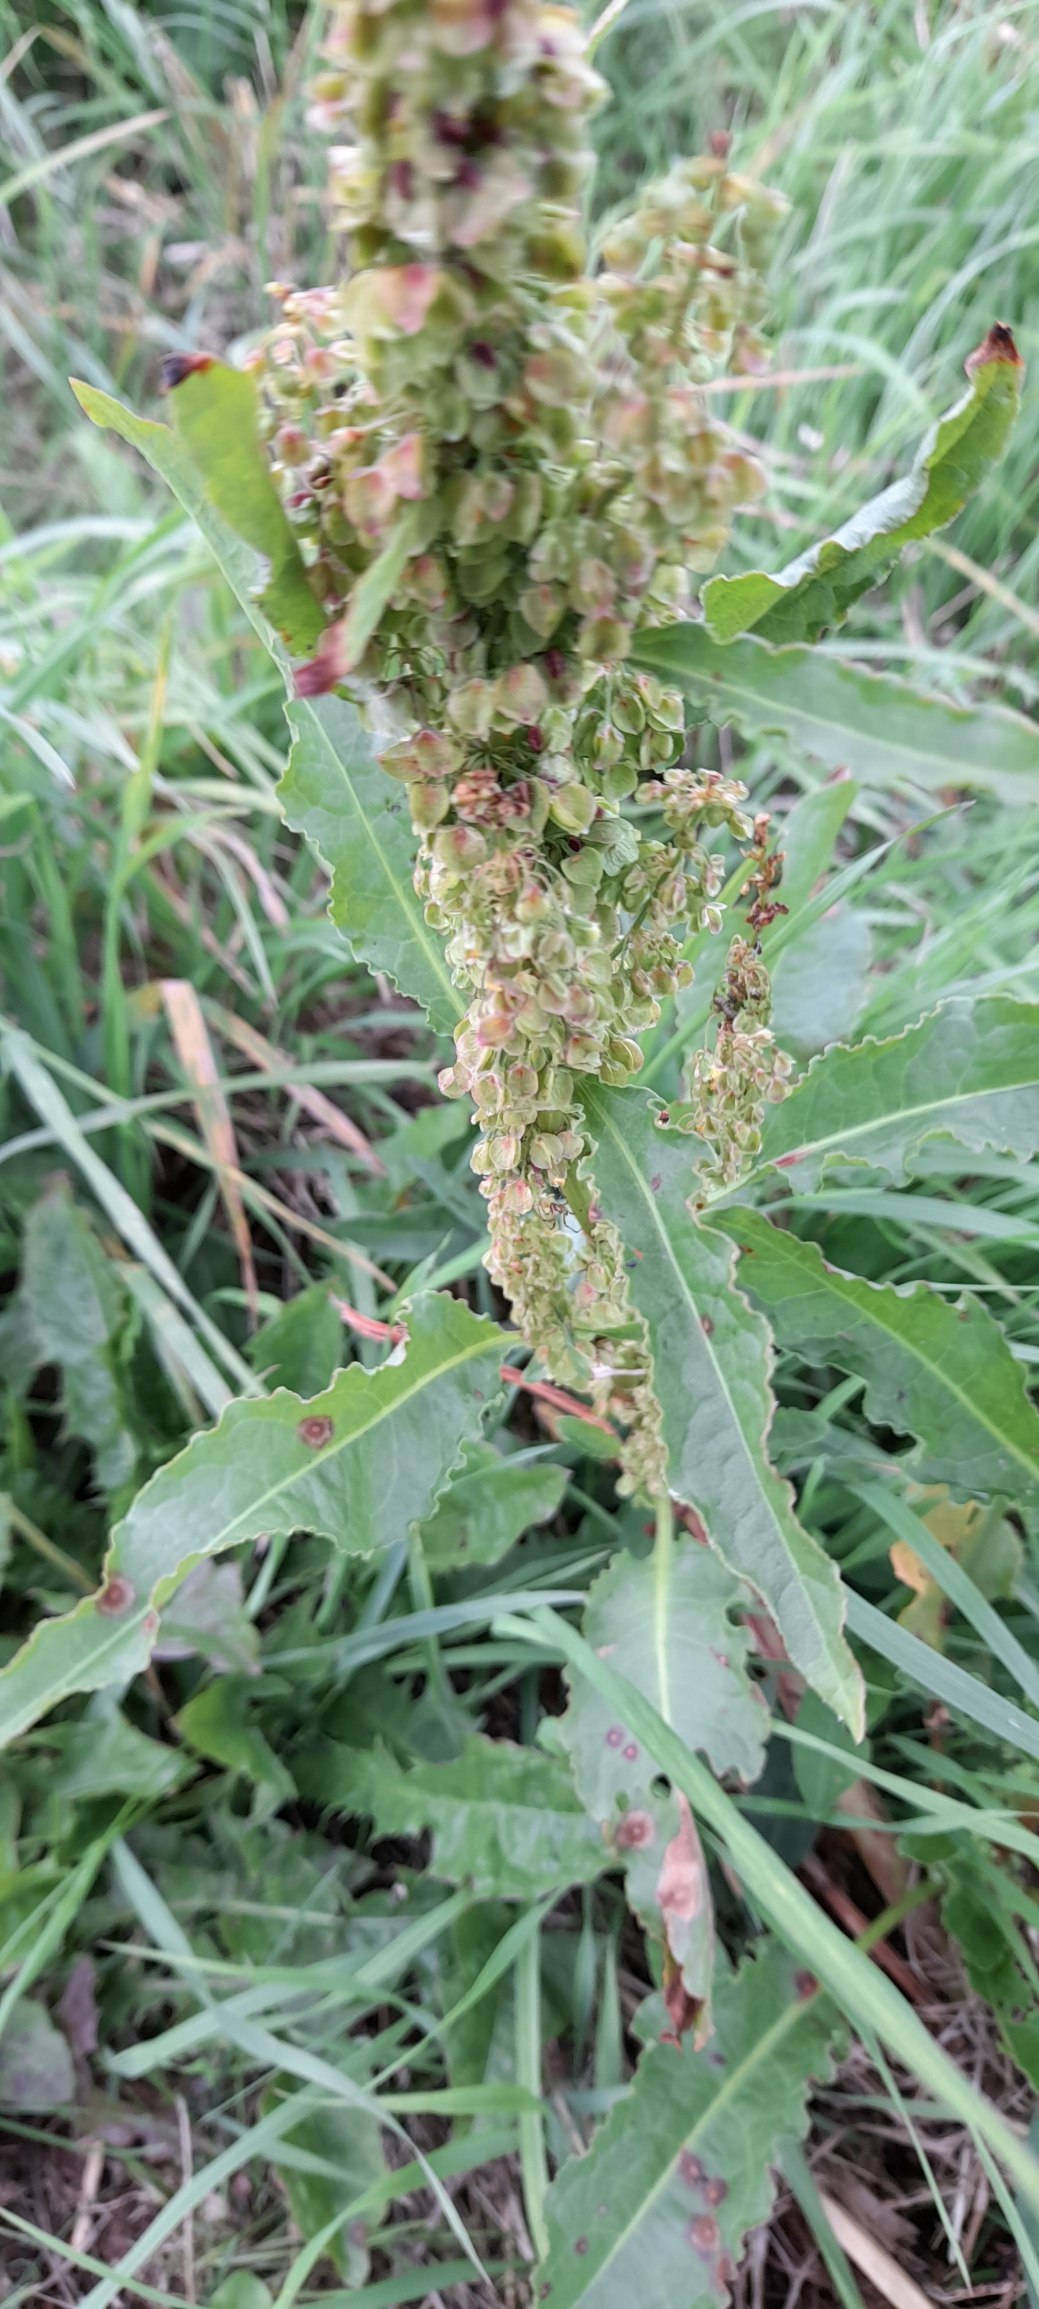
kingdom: Plantae
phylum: Tracheophyta
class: Magnoliopsida
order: Caryophyllales
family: Polygonaceae
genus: Rumex
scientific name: Rumex longifolius
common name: By-skræppe
